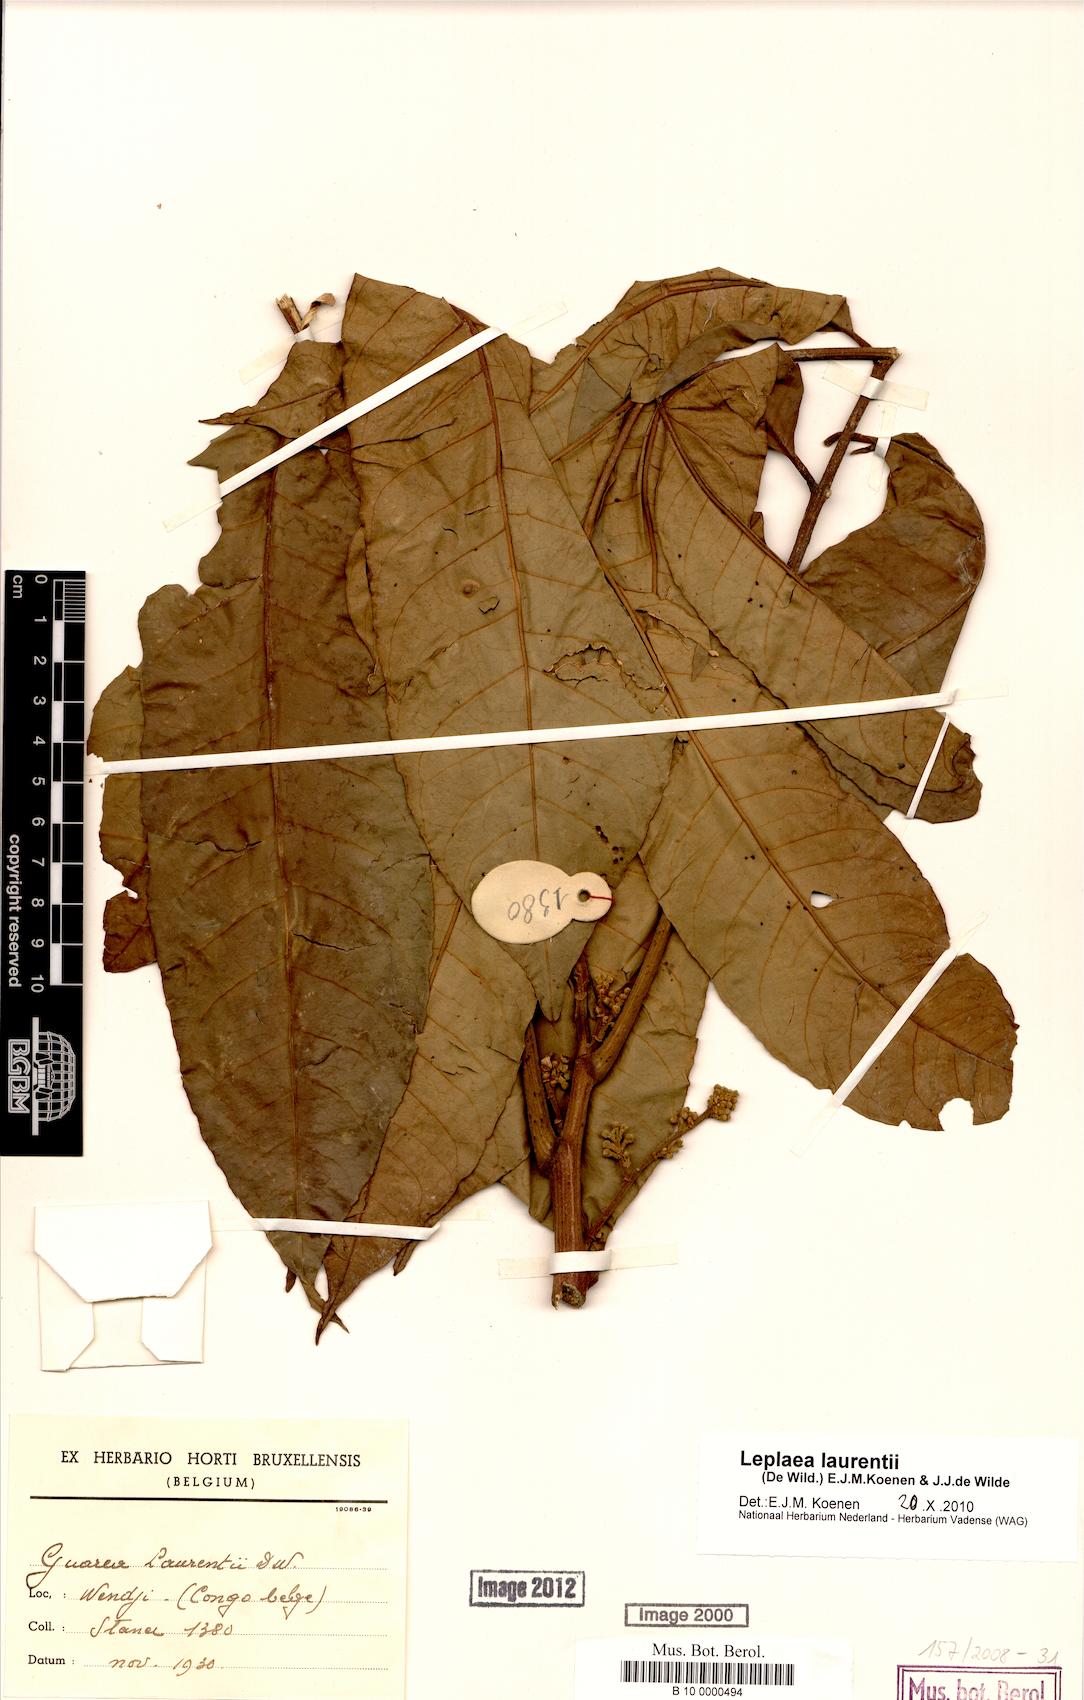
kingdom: Plantae
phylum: Tracheophyta
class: Magnoliopsida
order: Sapindales
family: Meliaceae
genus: Leplaea
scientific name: Leplaea laurentii
